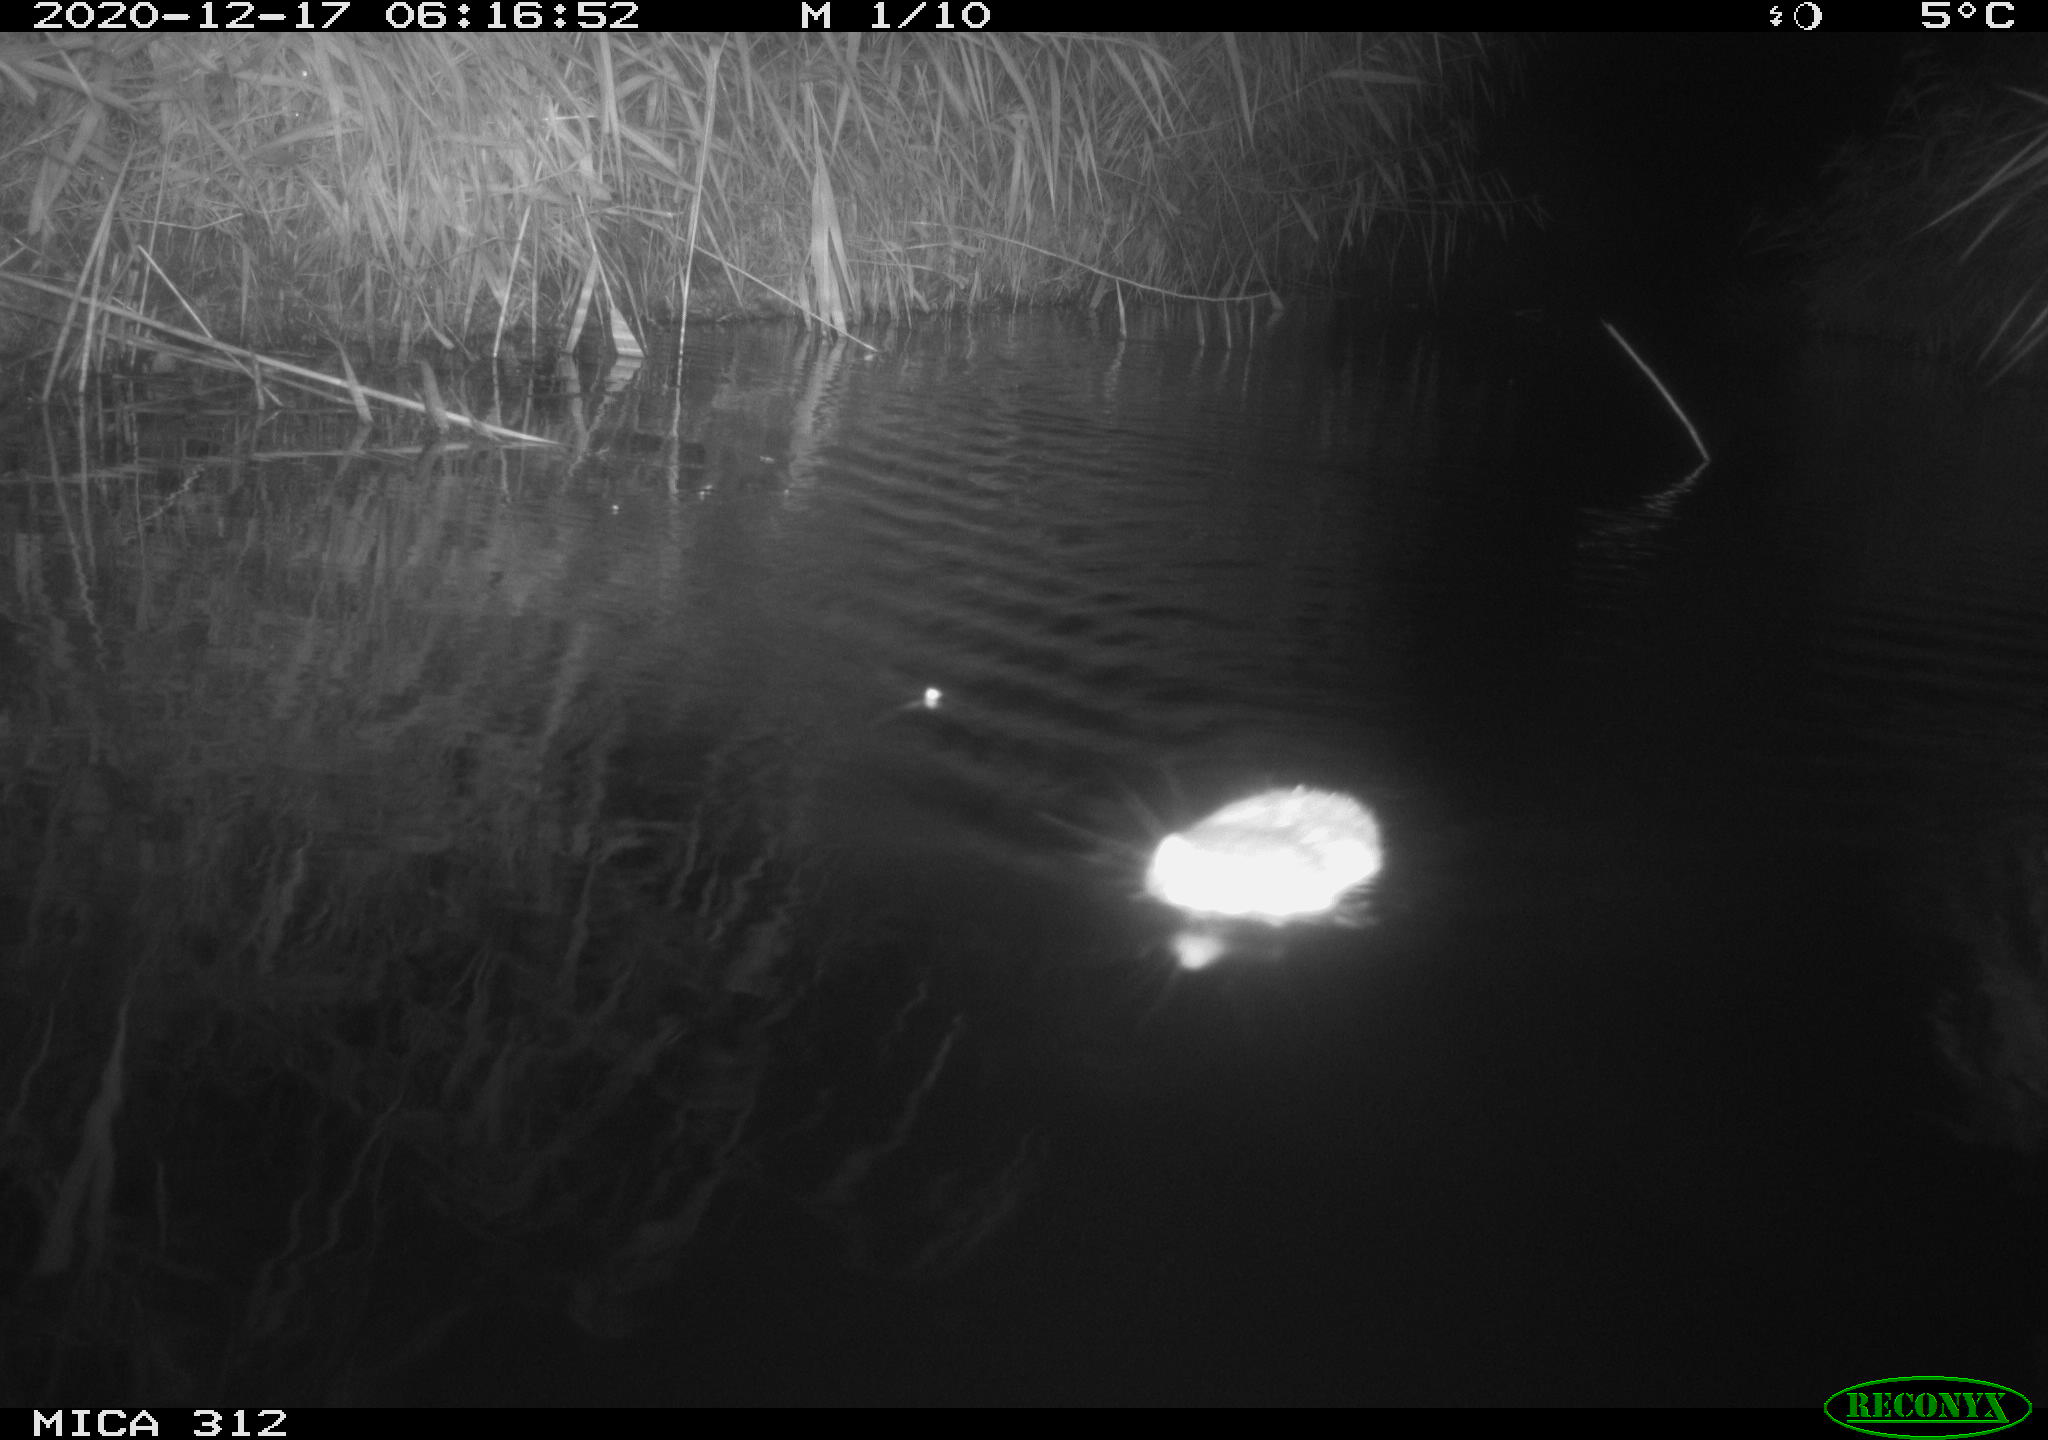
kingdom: Animalia
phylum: Chordata
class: Mammalia
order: Rodentia
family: Muridae
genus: Rattus
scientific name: Rattus norvegicus
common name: Brown rat
